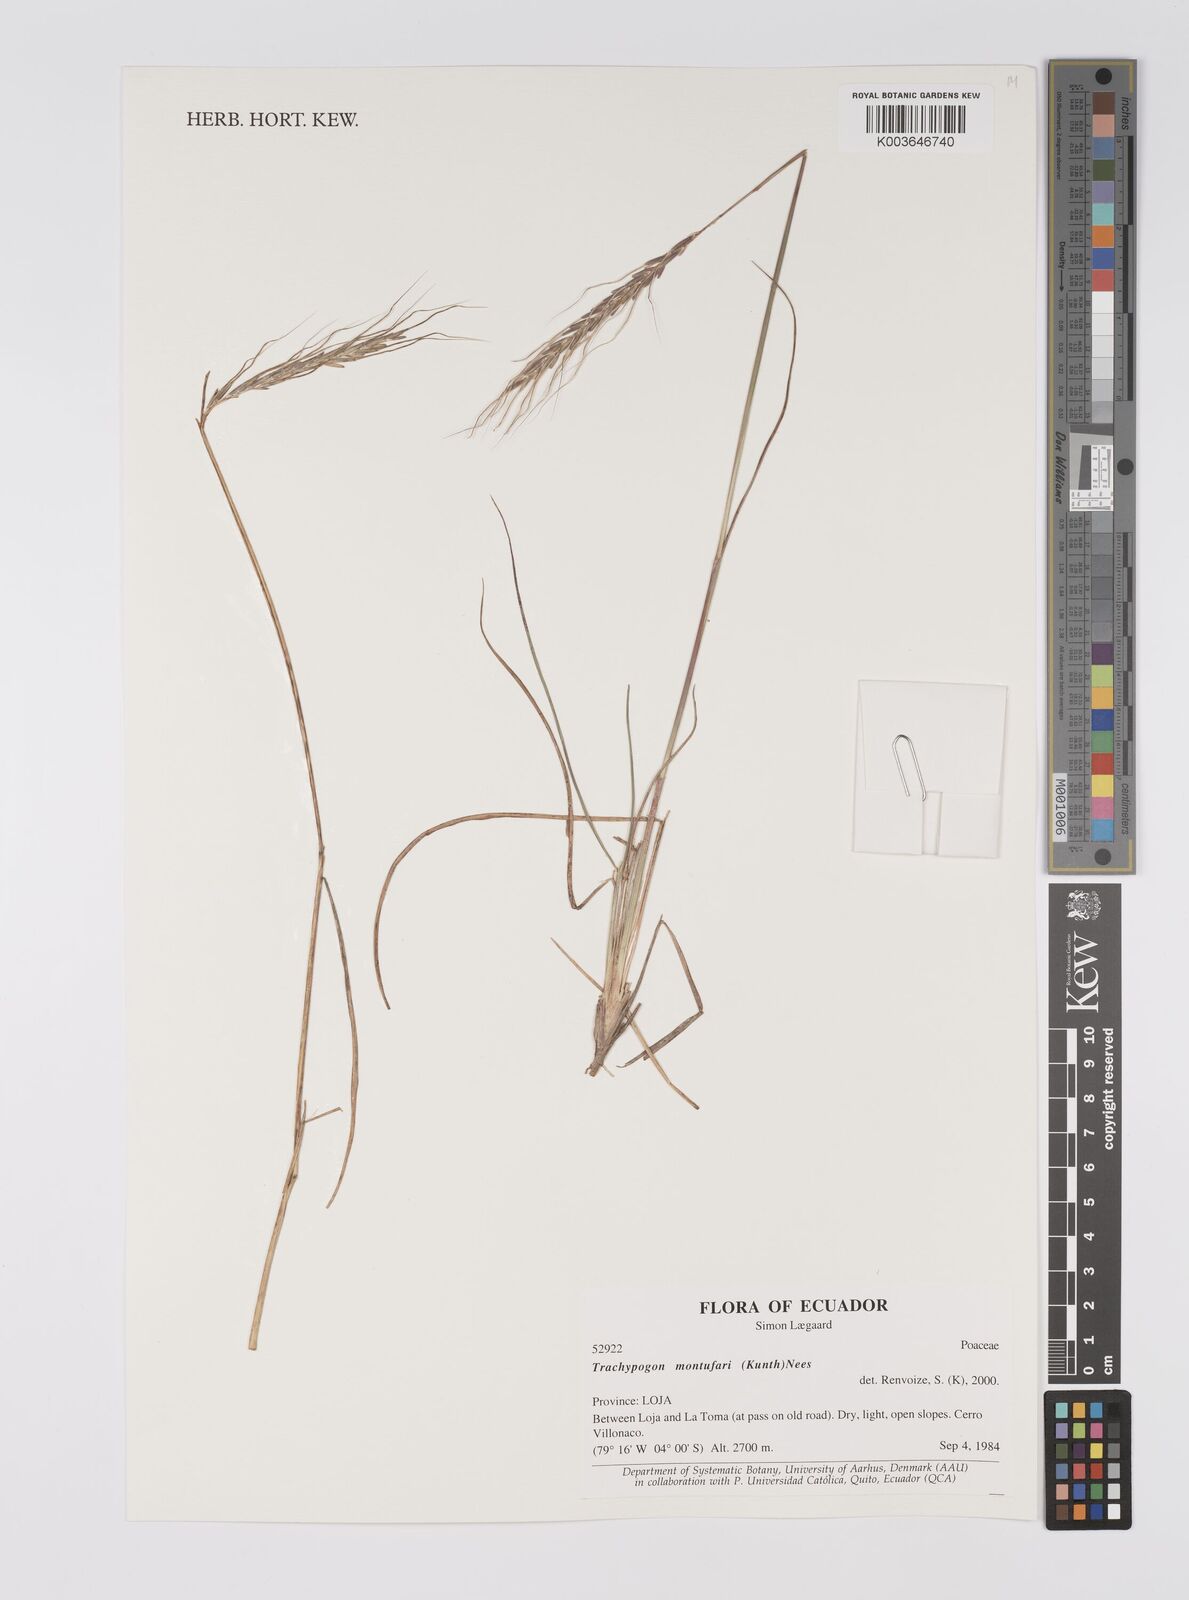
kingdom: Plantae
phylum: Tracheophyta
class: Liliopsida
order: Poales
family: Poaceae
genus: Trachypogon
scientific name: Trachypogon spicatus
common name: Crinkle-awn
